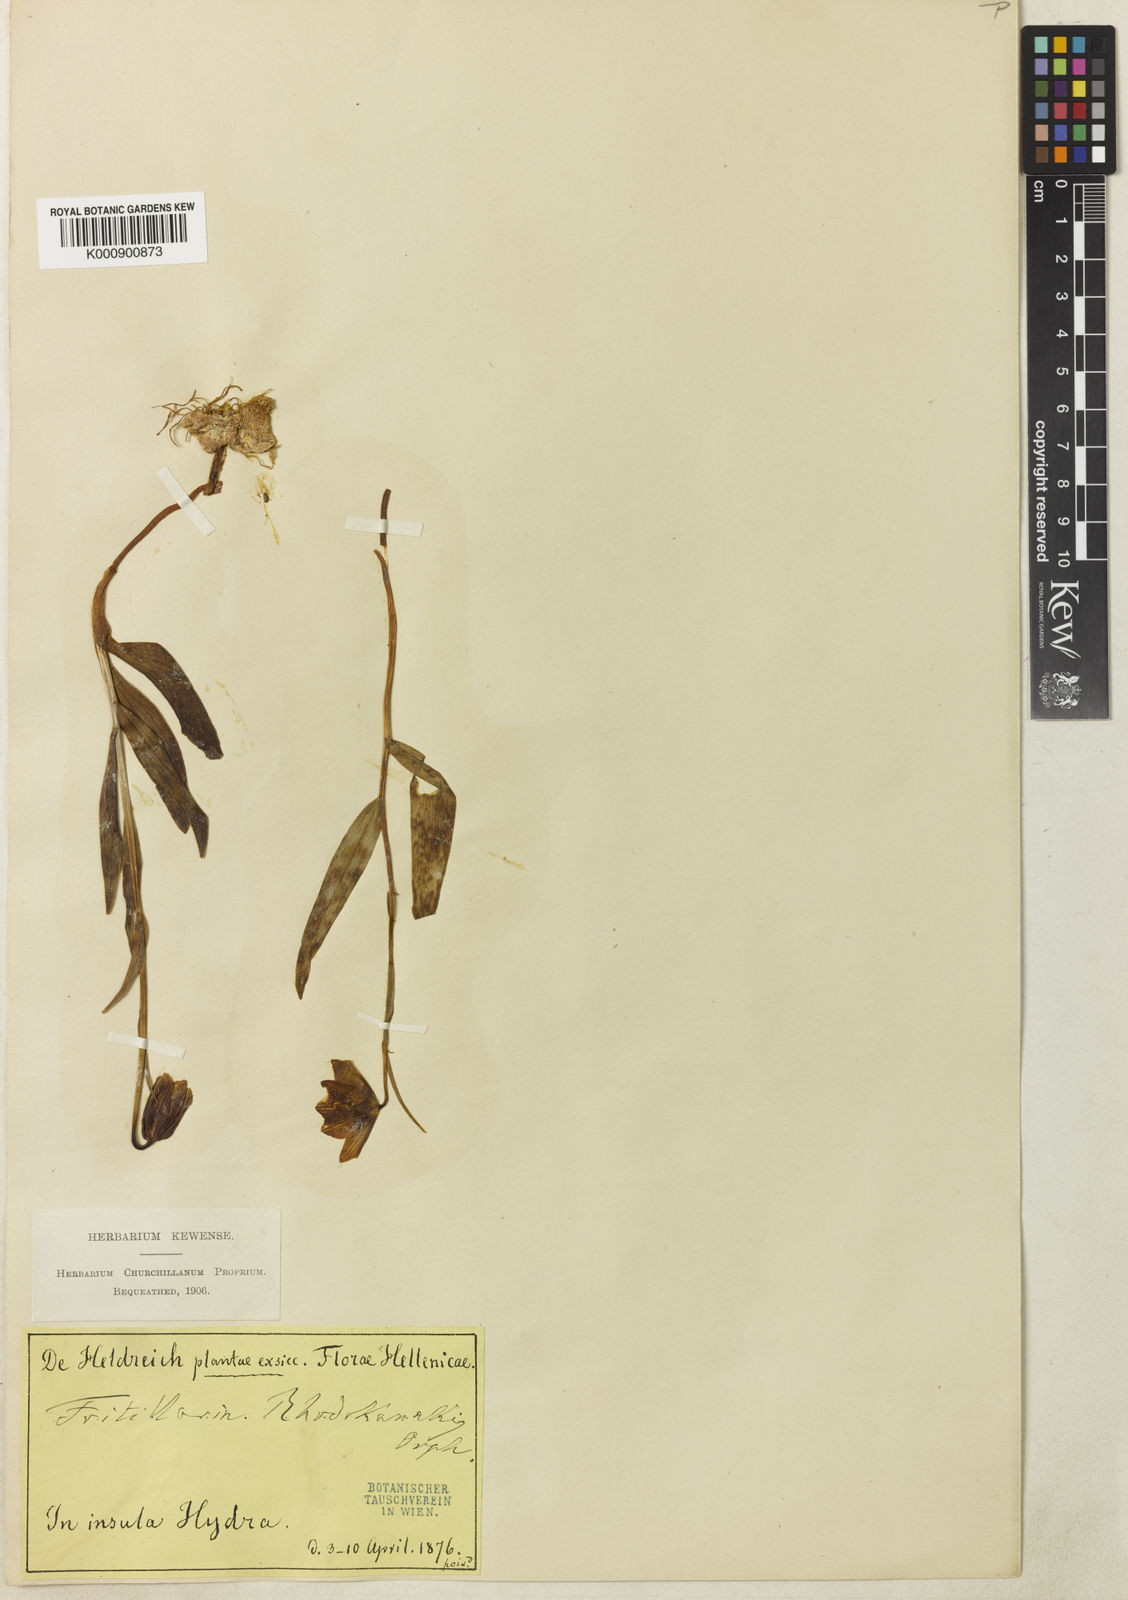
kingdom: Plantae
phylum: Tracheophyta
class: Liliopsida
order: Liliales
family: Liliaceae
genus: Fritillaria
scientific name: Fritillaria
